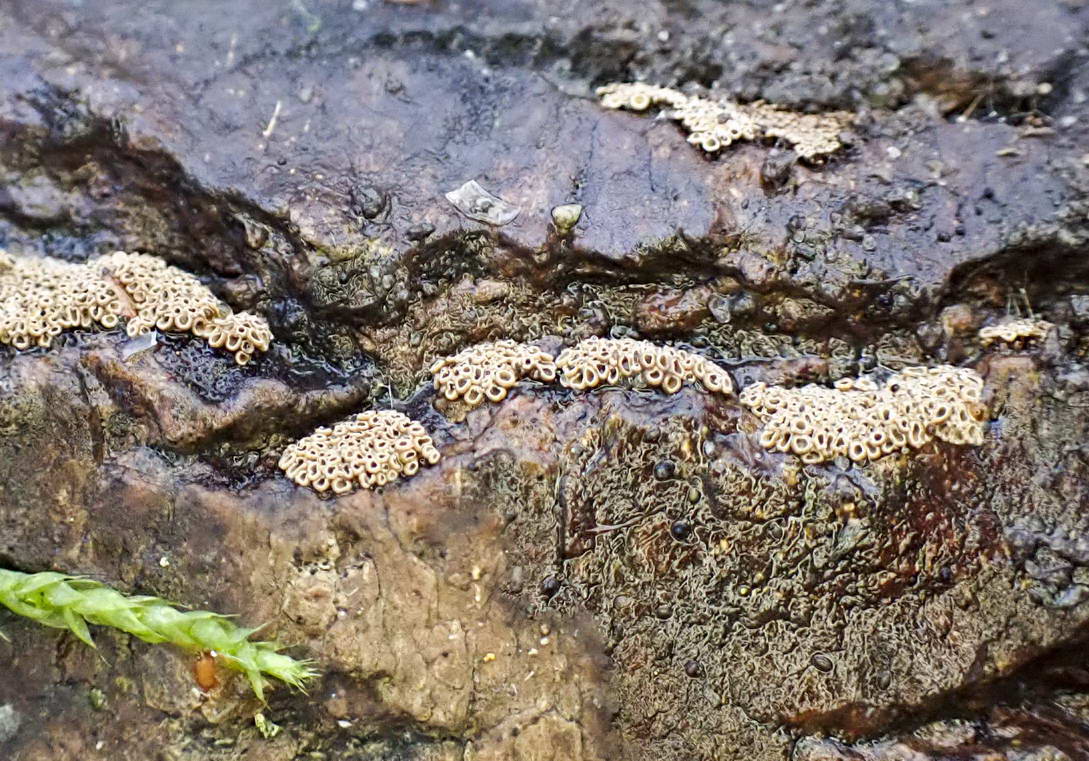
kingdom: Fungi
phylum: Basidiomycota
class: Agaricomycetes
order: Agaricales
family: Niaceae
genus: Merismodes
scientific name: Merismodes anomala
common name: almindelig læderskål
